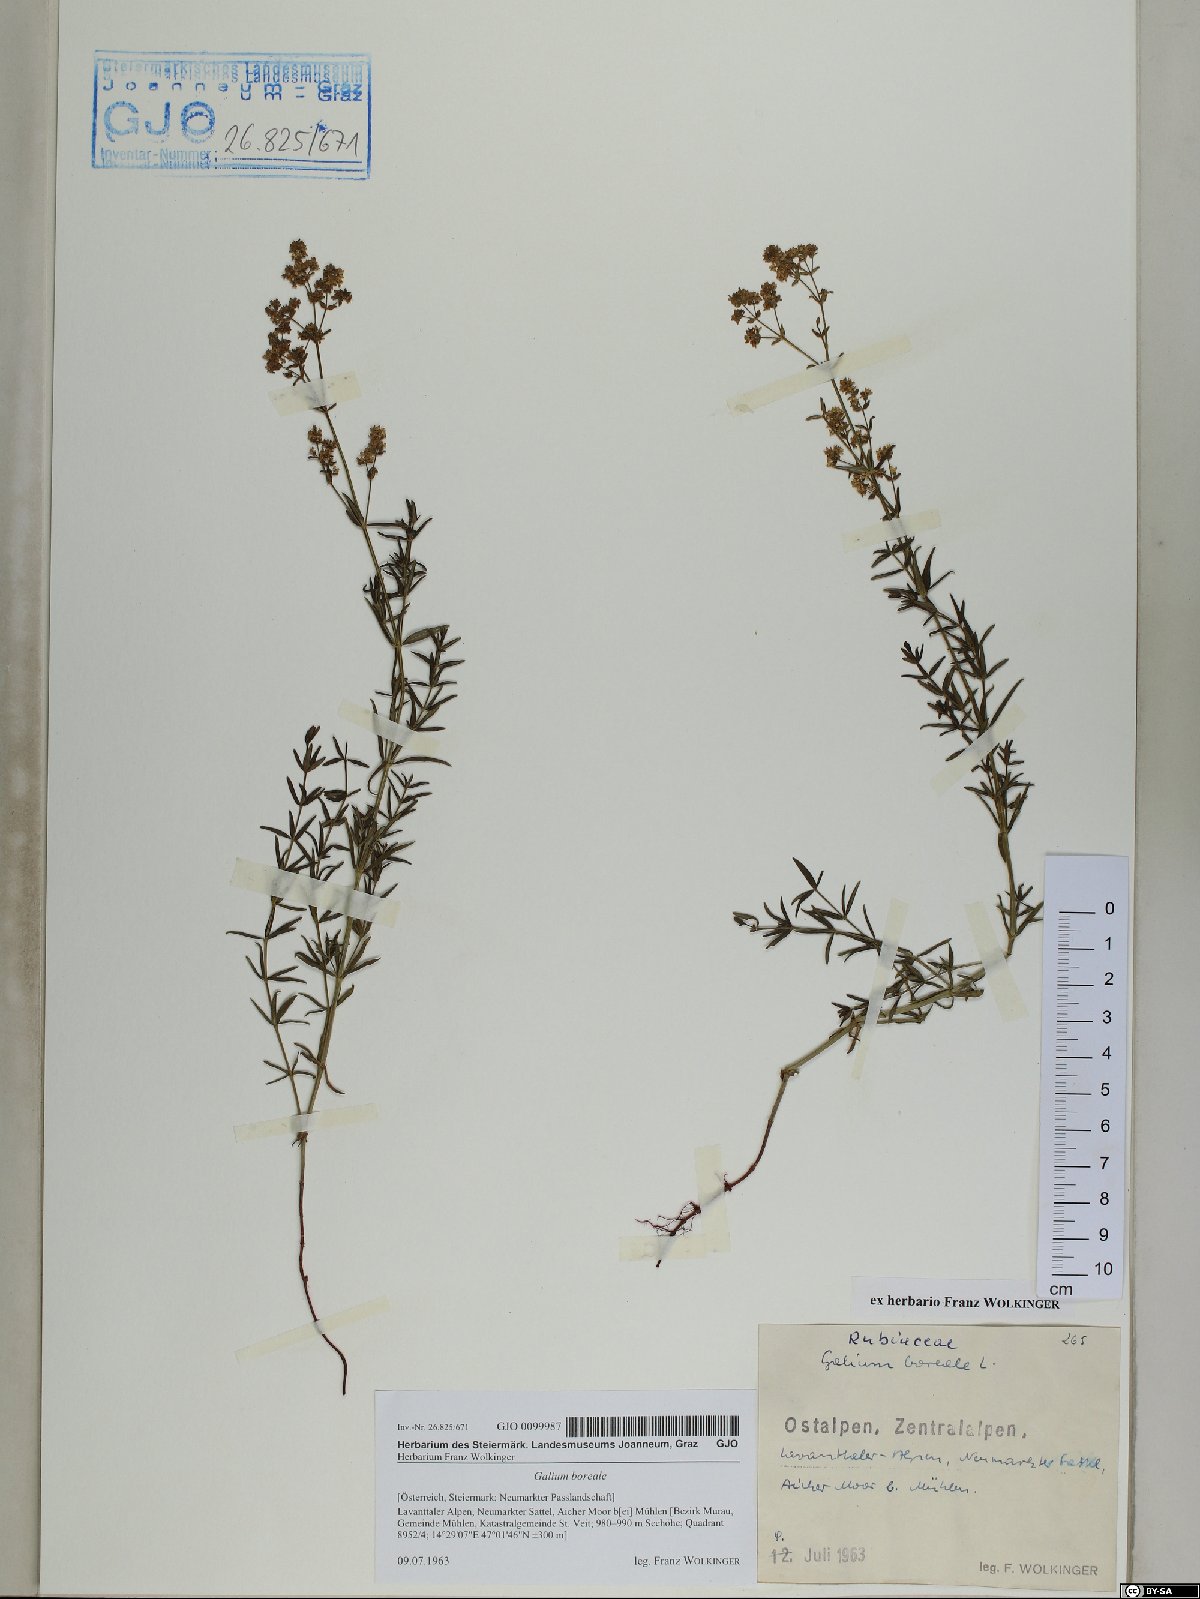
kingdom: Plantae
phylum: Tracheophyta
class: Magnoliopsida
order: Gentianales
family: Rubiaceae
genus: Galium
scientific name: Galium boreale
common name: Northern bedstraw
